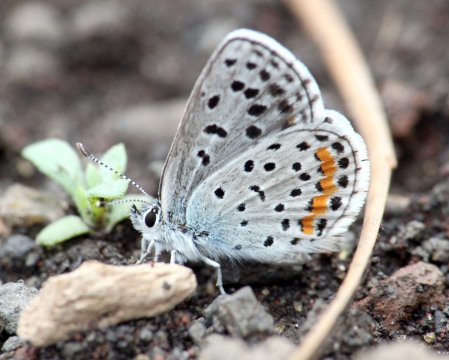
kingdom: Animalia
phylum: Arthropoda
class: Insecta
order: Lepidoptera
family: Lycaenidae
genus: Euphilotes
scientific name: Euphilotes battoides
